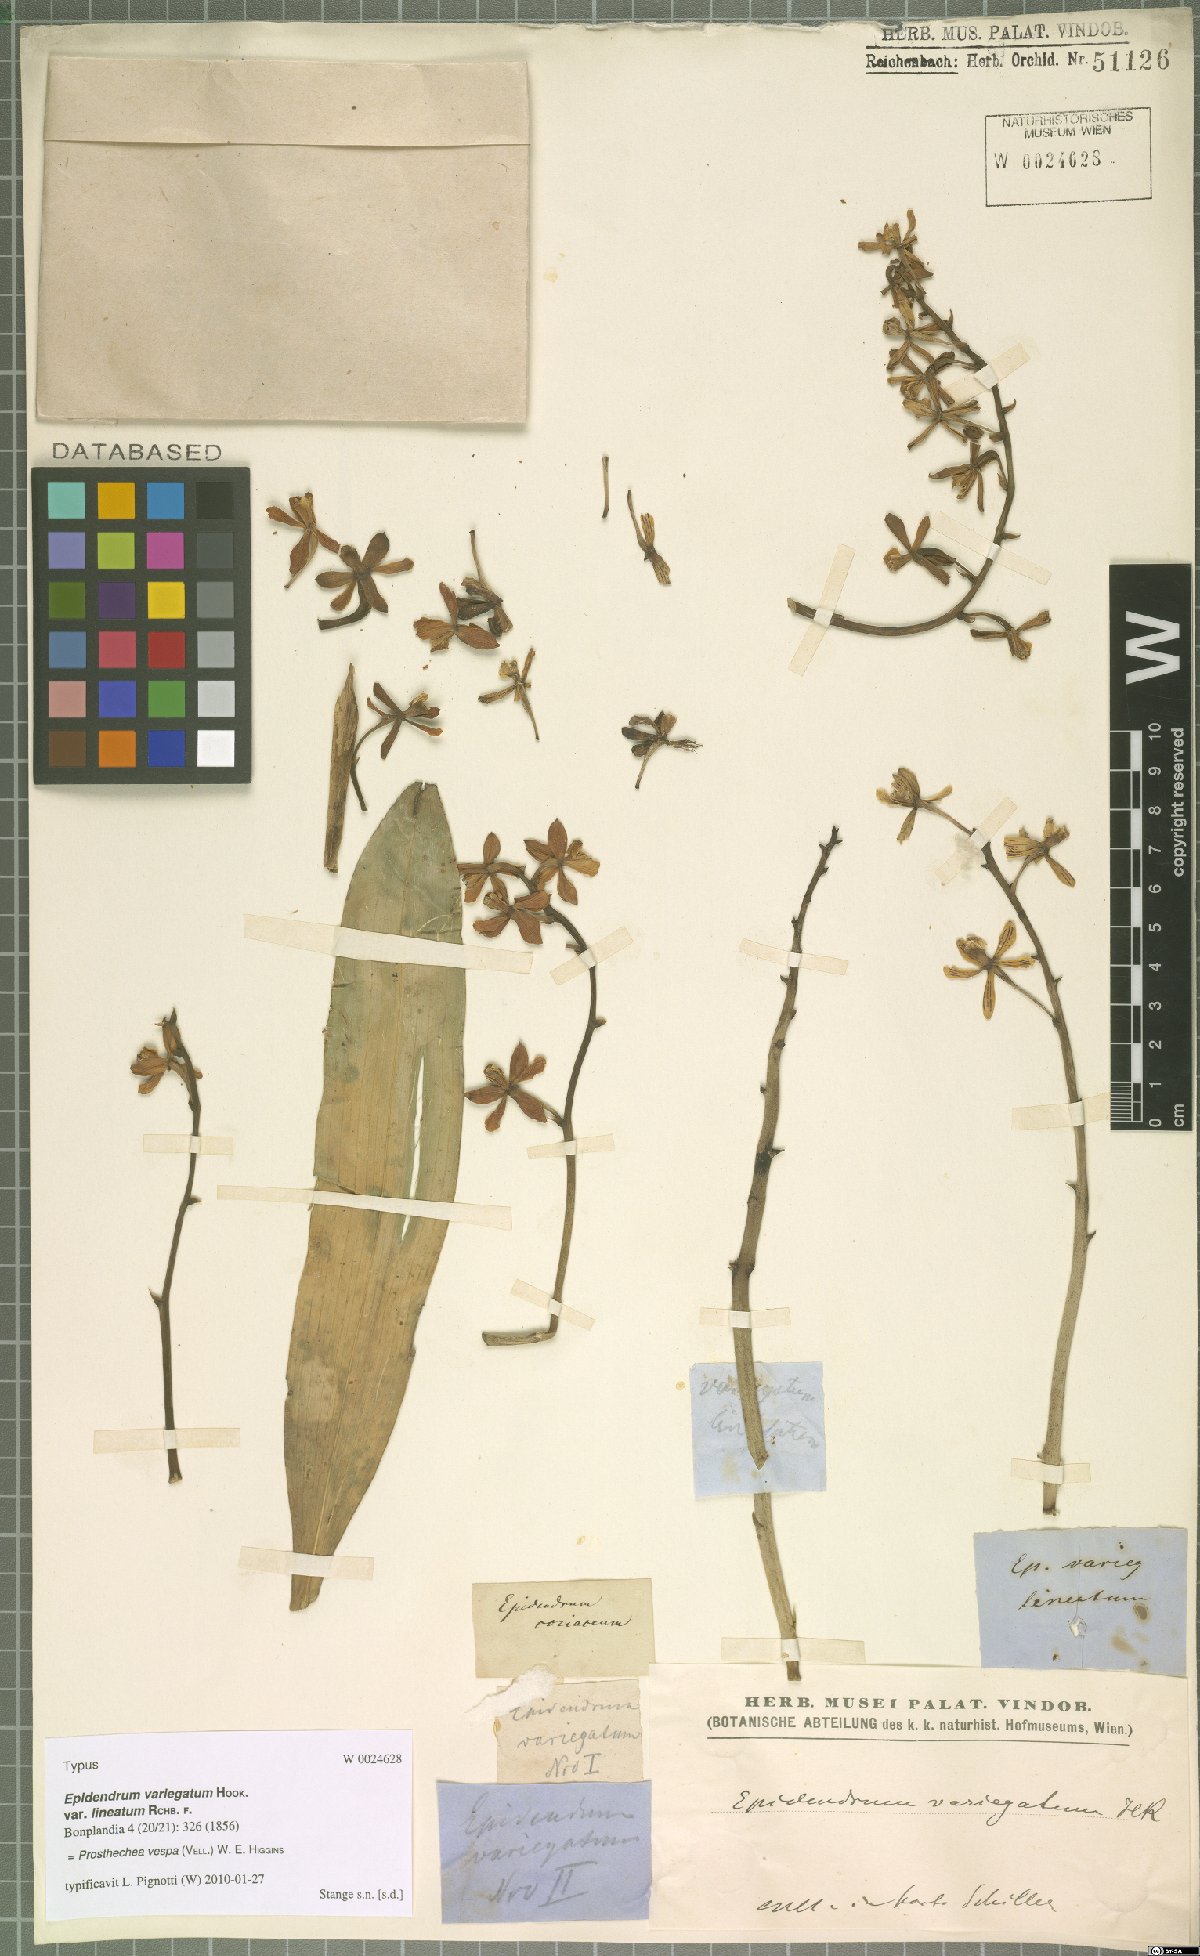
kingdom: Plantae
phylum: Tracheophyta
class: Liliopsida
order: Asparagales
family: Orchidaceae
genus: Prosthechea
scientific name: Prosthechea vespa
